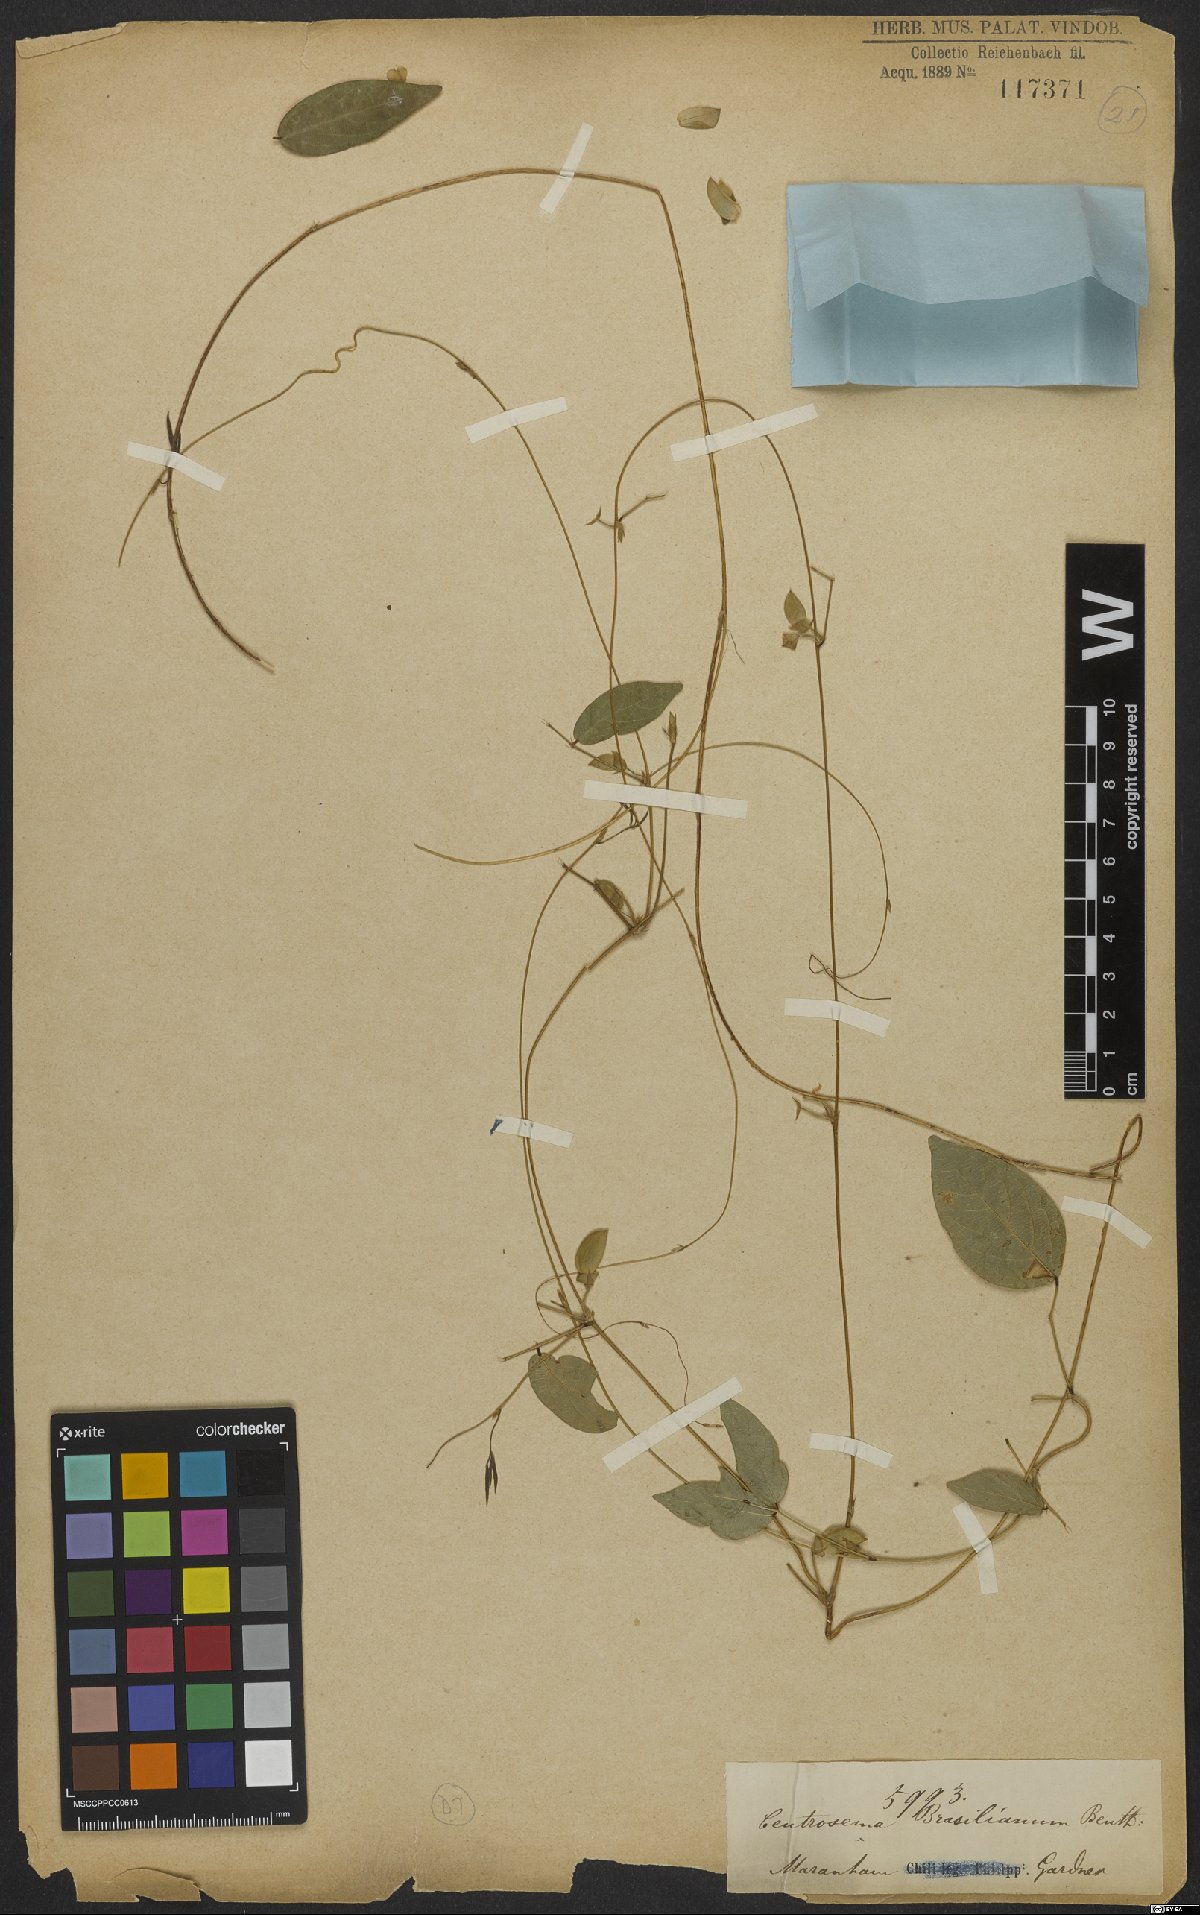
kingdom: Plantae
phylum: Tracheophyta
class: Magnoliopsida
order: Fabales
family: Fabaceae
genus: Centrosema
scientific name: Centrosema brasilianum
